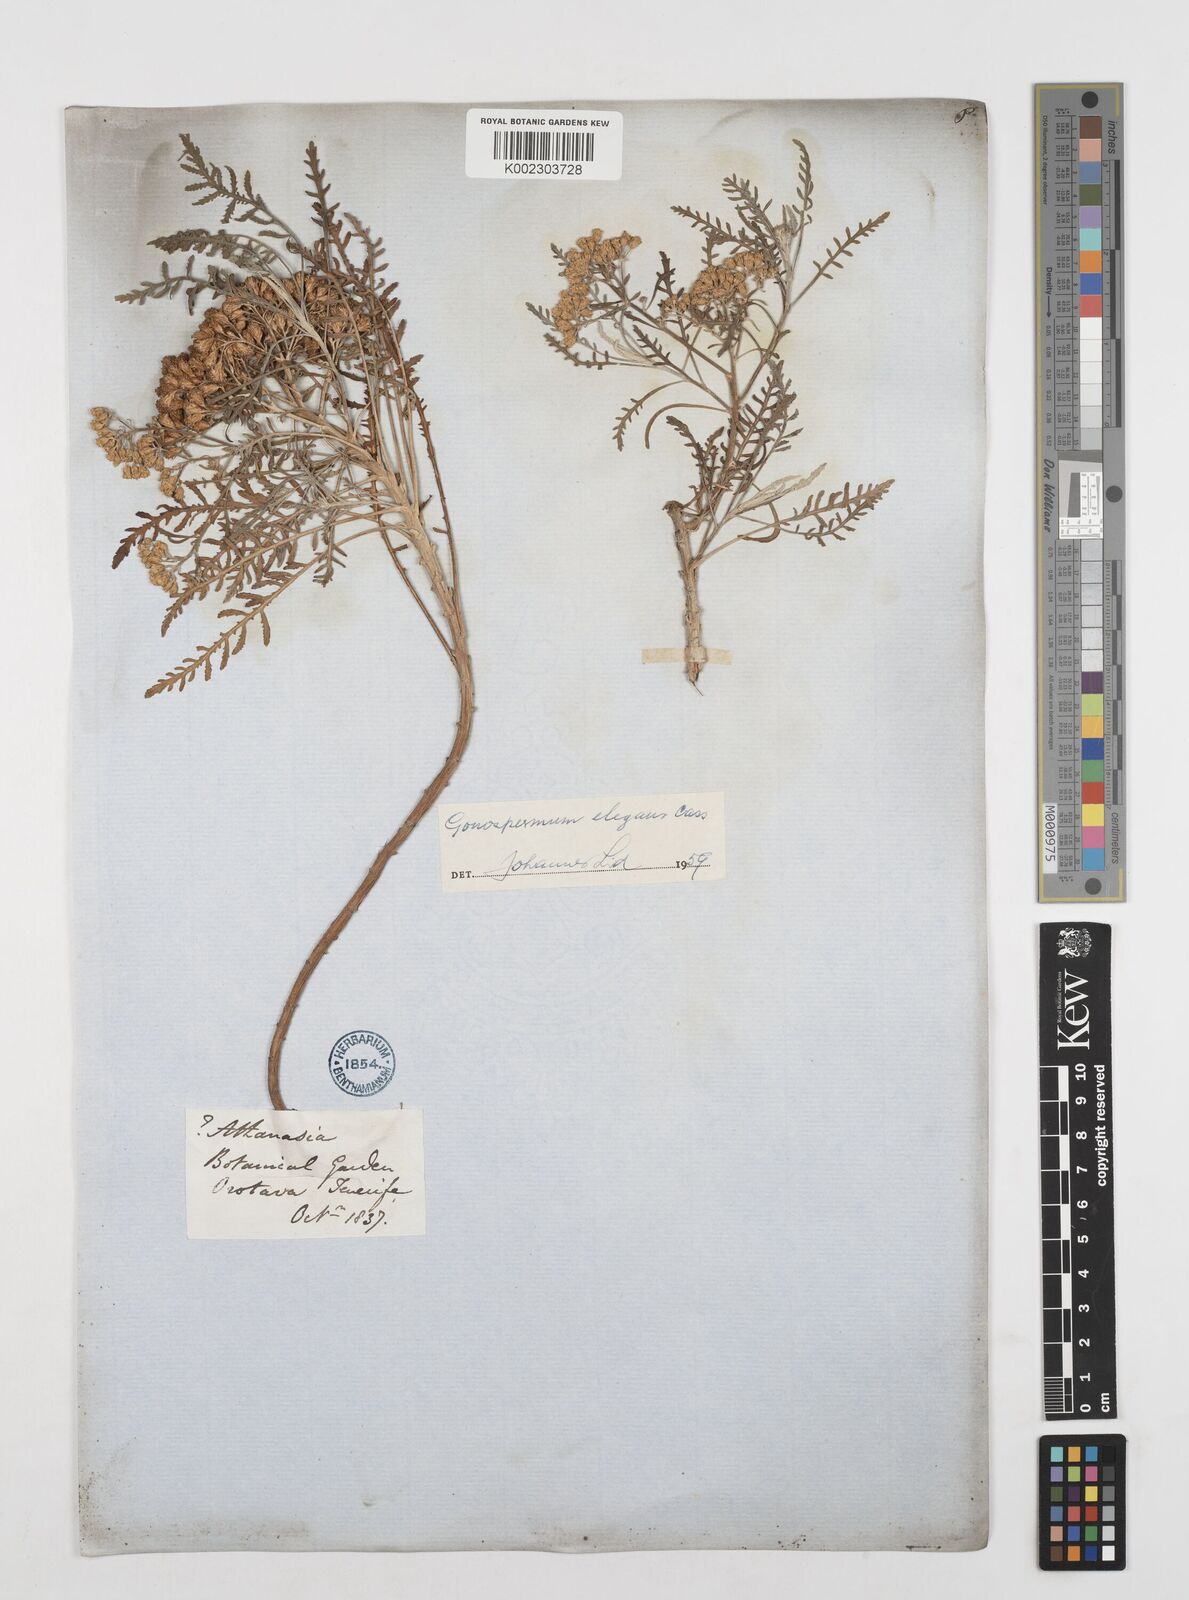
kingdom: Plantae
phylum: Tracheophyta
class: Magnoliopsida
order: Asterales
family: Asteraceae
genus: Gonospermum
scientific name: Gonospermum
